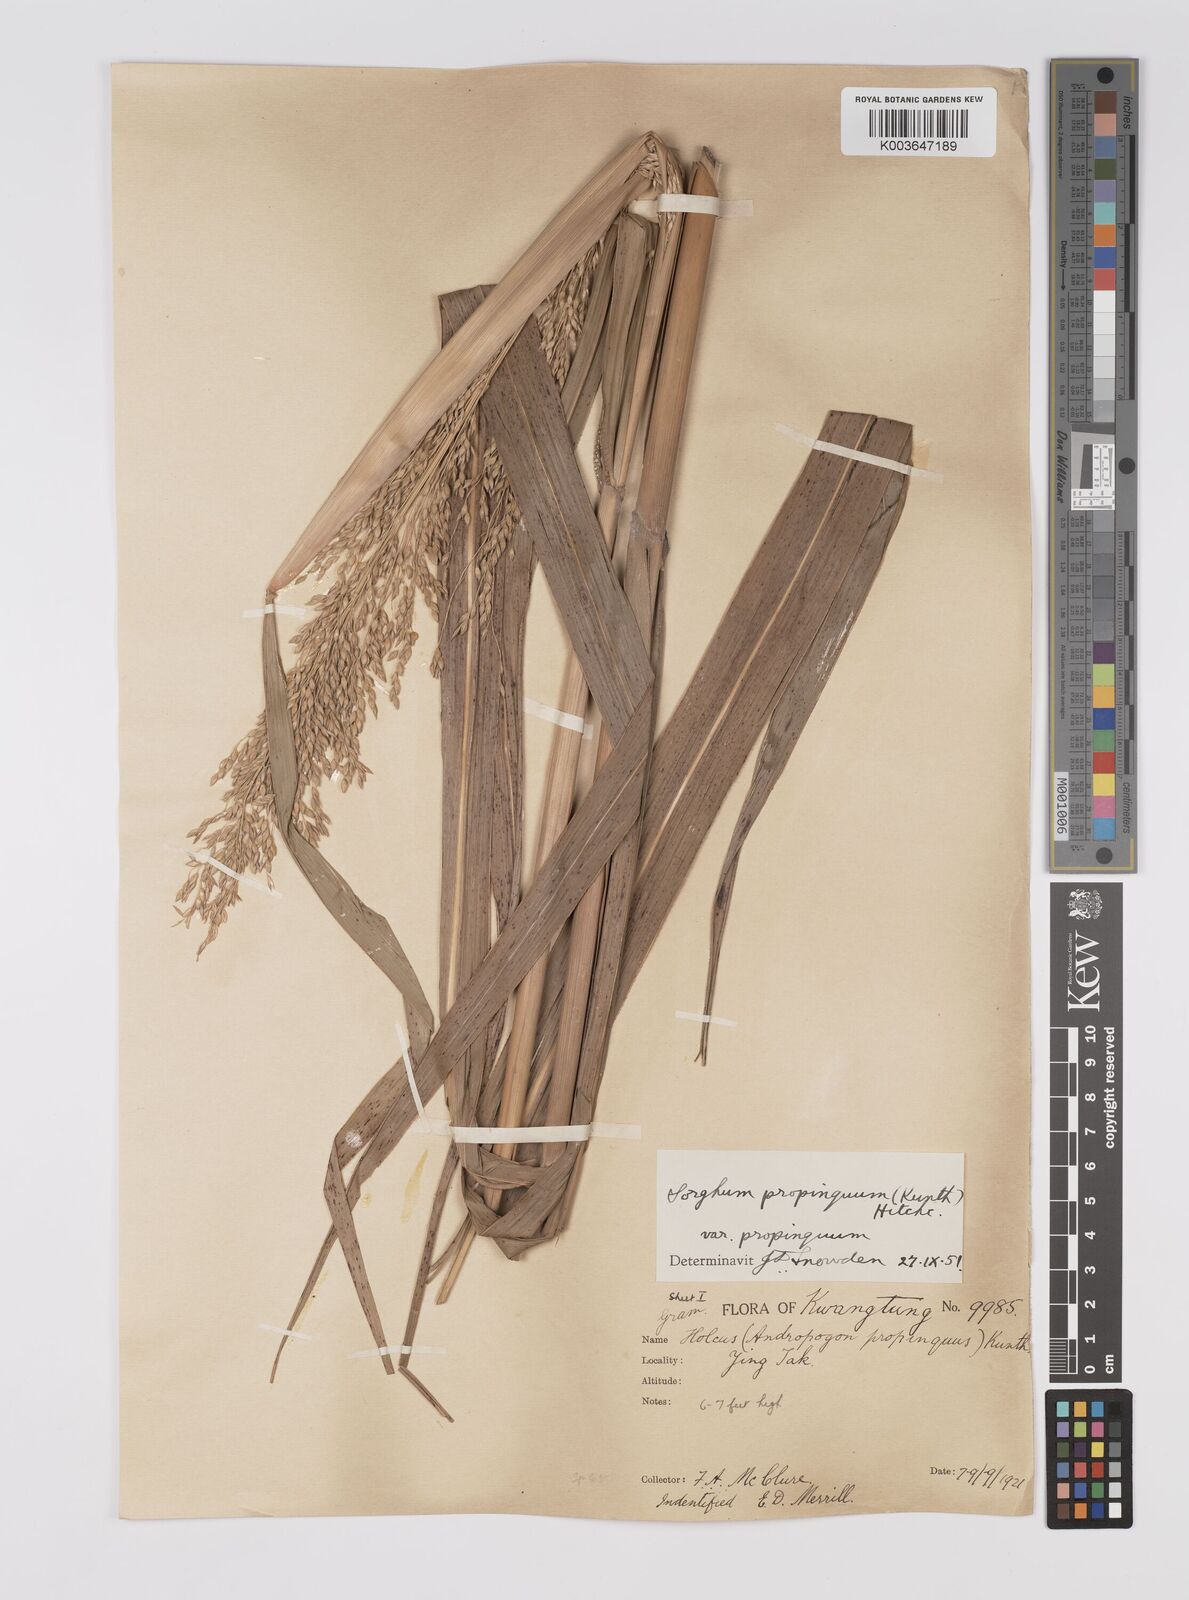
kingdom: Plantae
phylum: Tracheophyta
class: Liliopsida
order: Poales
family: Poaceae
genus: Sorghum
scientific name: Sorghum propinquum
